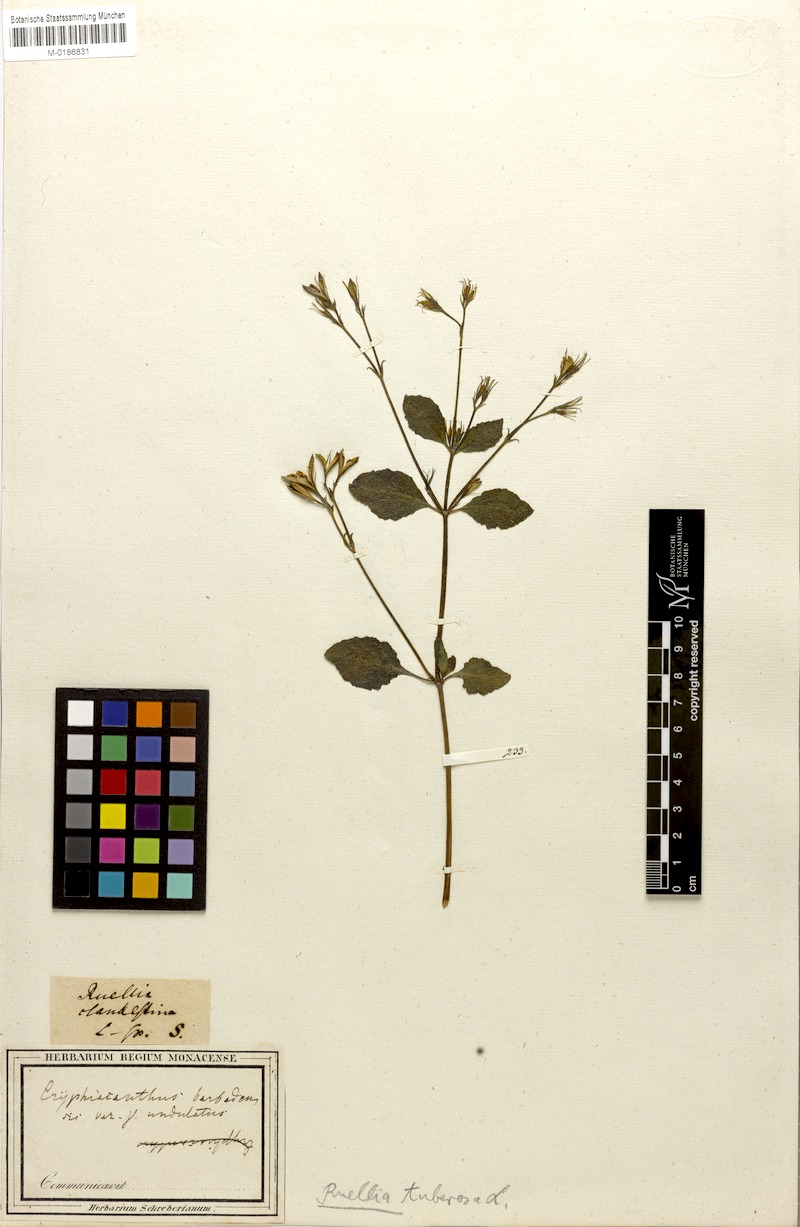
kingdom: Plantae
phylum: Tracheophyta
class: Magnoliopsida
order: Lamiales
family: Acanthaceae
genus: Ruellia
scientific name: Ruellia tuberosa
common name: Devil's bit
